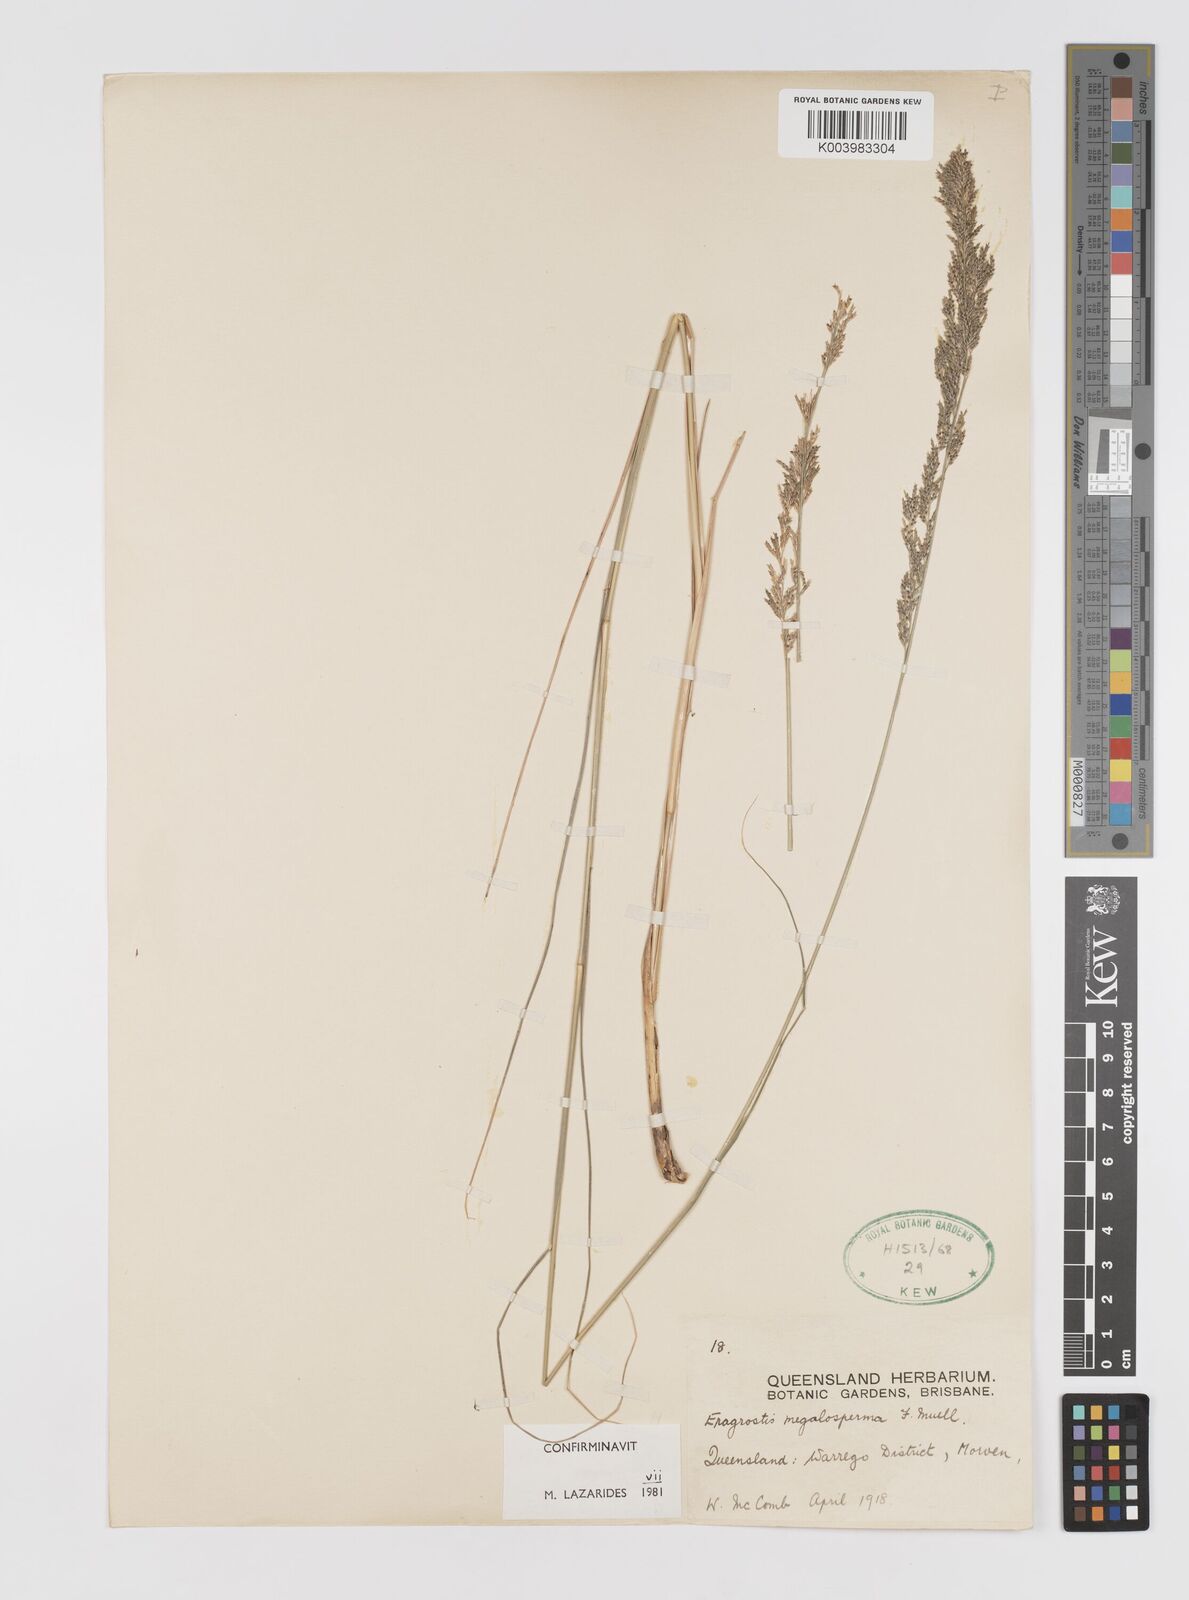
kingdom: Plantae
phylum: Tracheophyta
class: Liliopsida
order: Poales
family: Poaceae
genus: Sporobolus
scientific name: Sporobolus megalospermus
